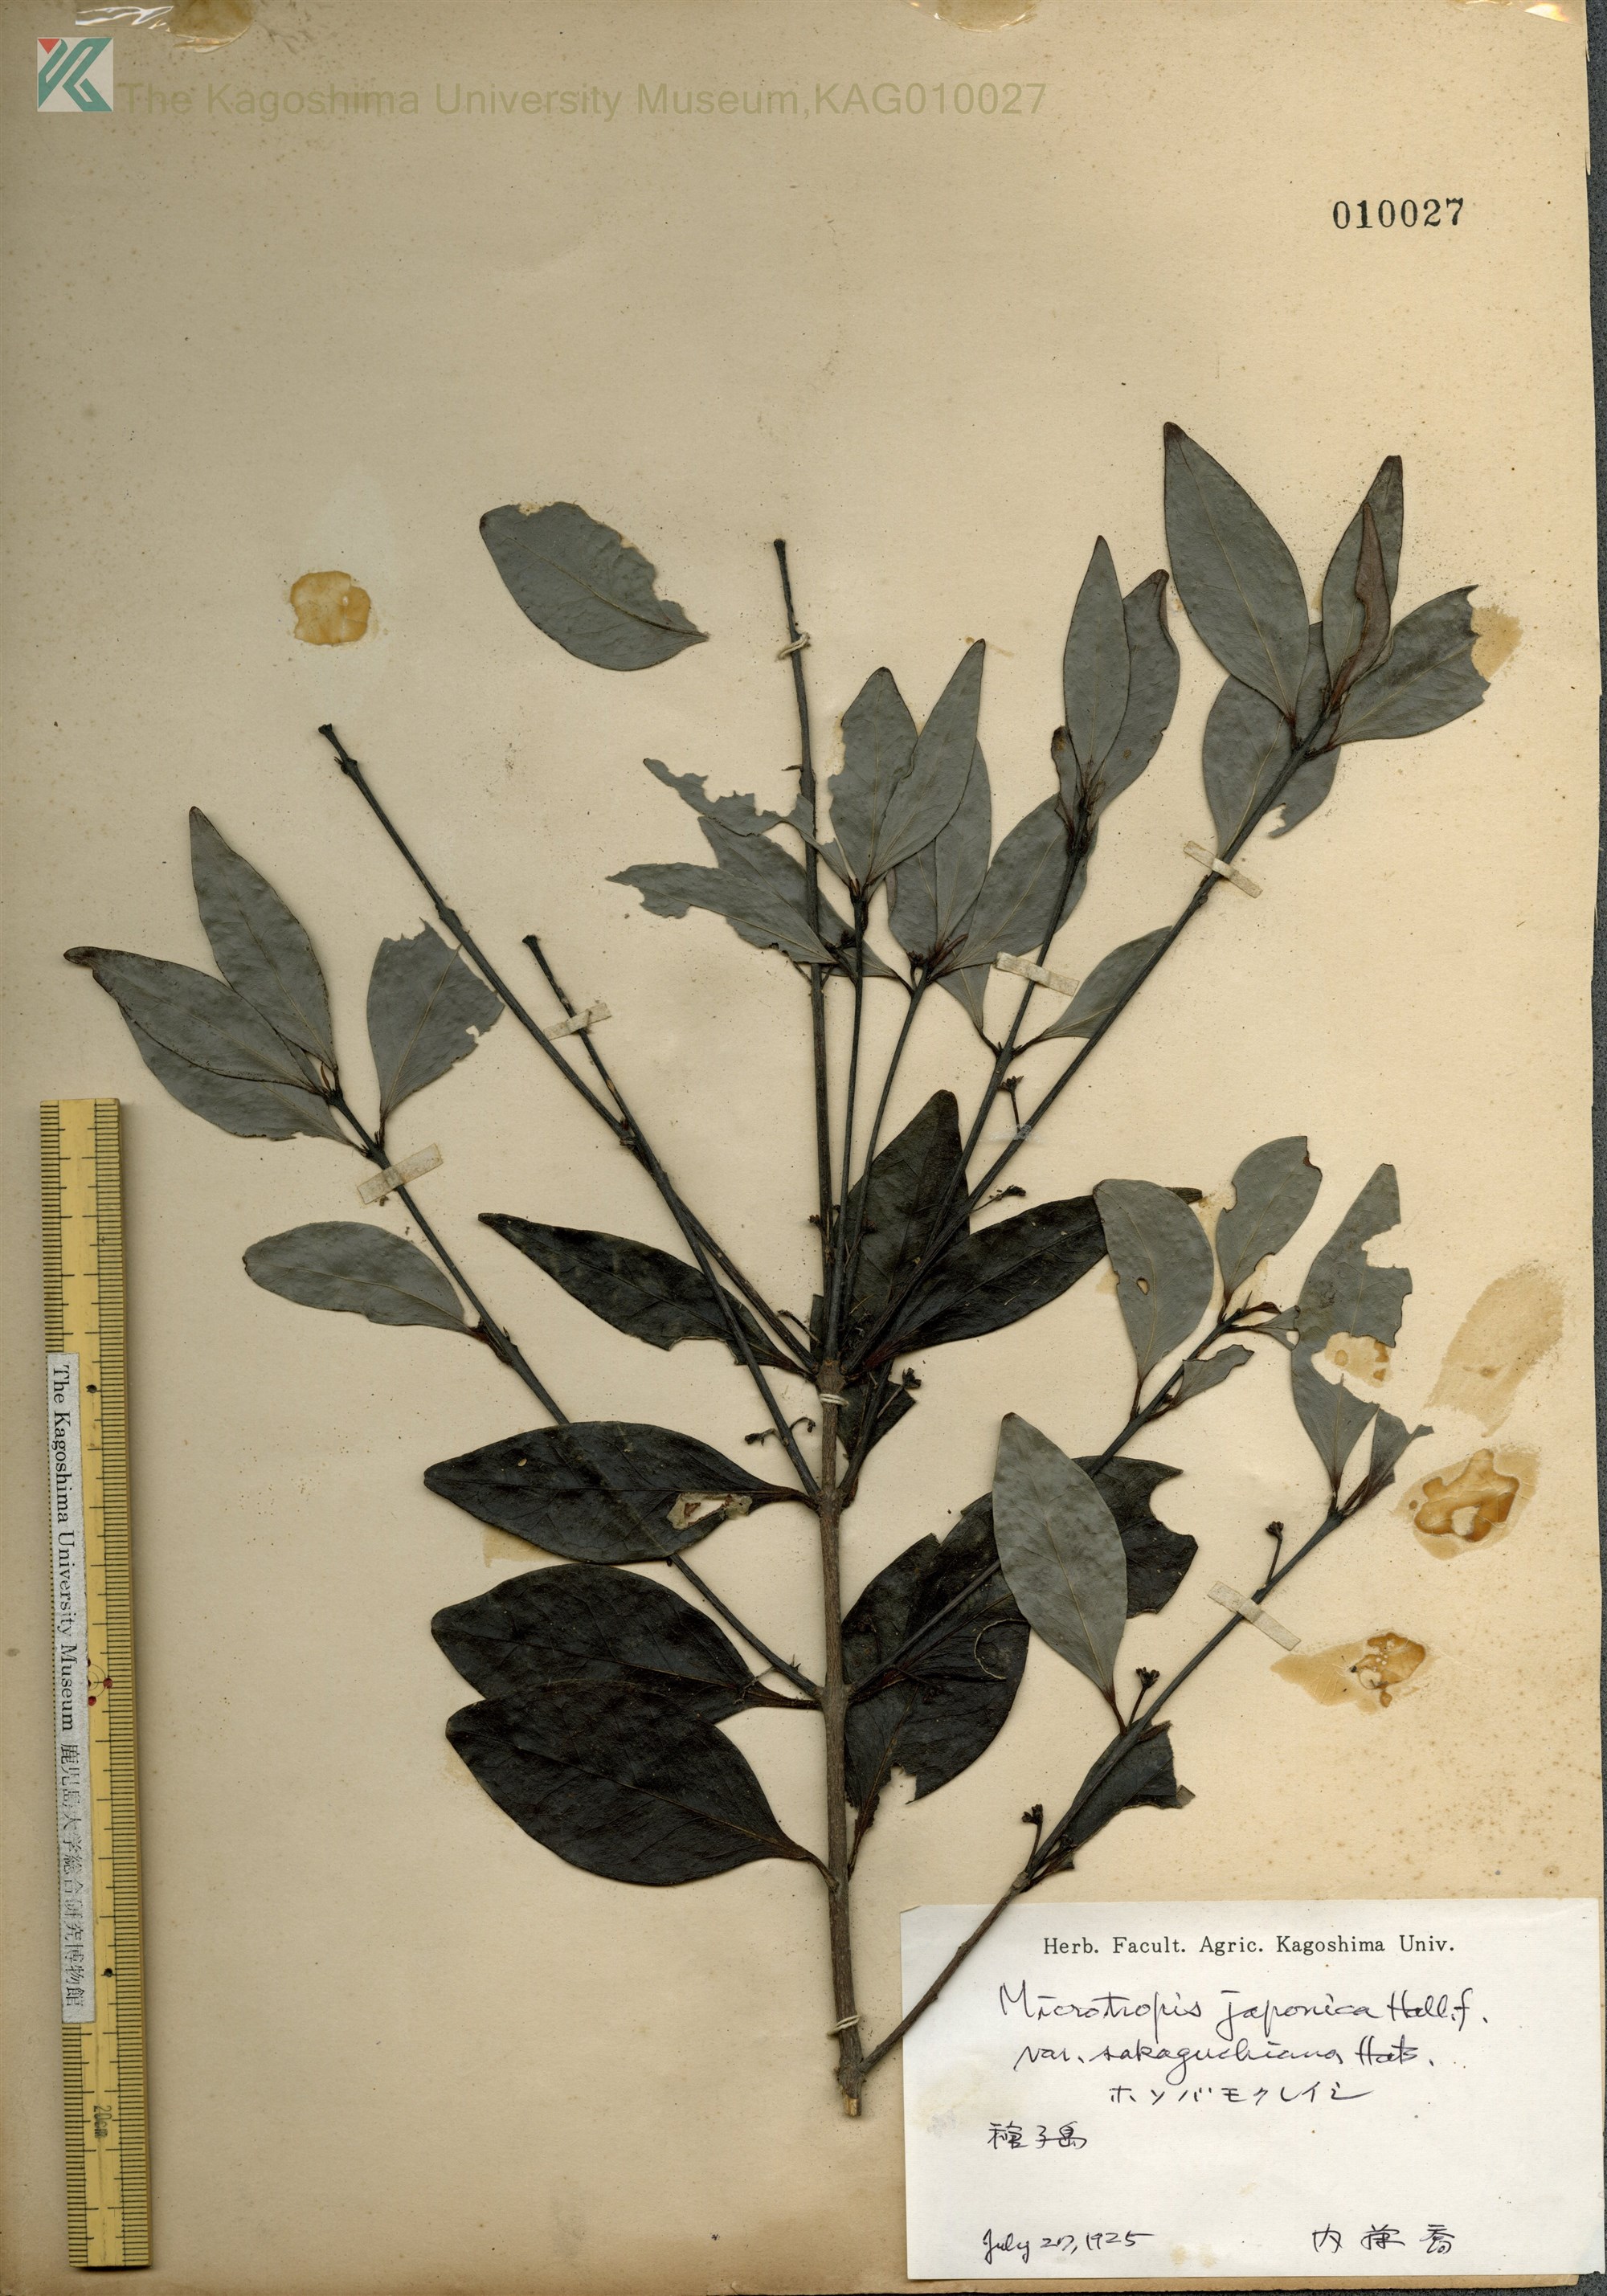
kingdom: Plantae
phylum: Tracheophyta
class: Magnoliopsida
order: Celastrales
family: Celastraceae
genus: Microtropis
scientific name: Microtropis japonica
